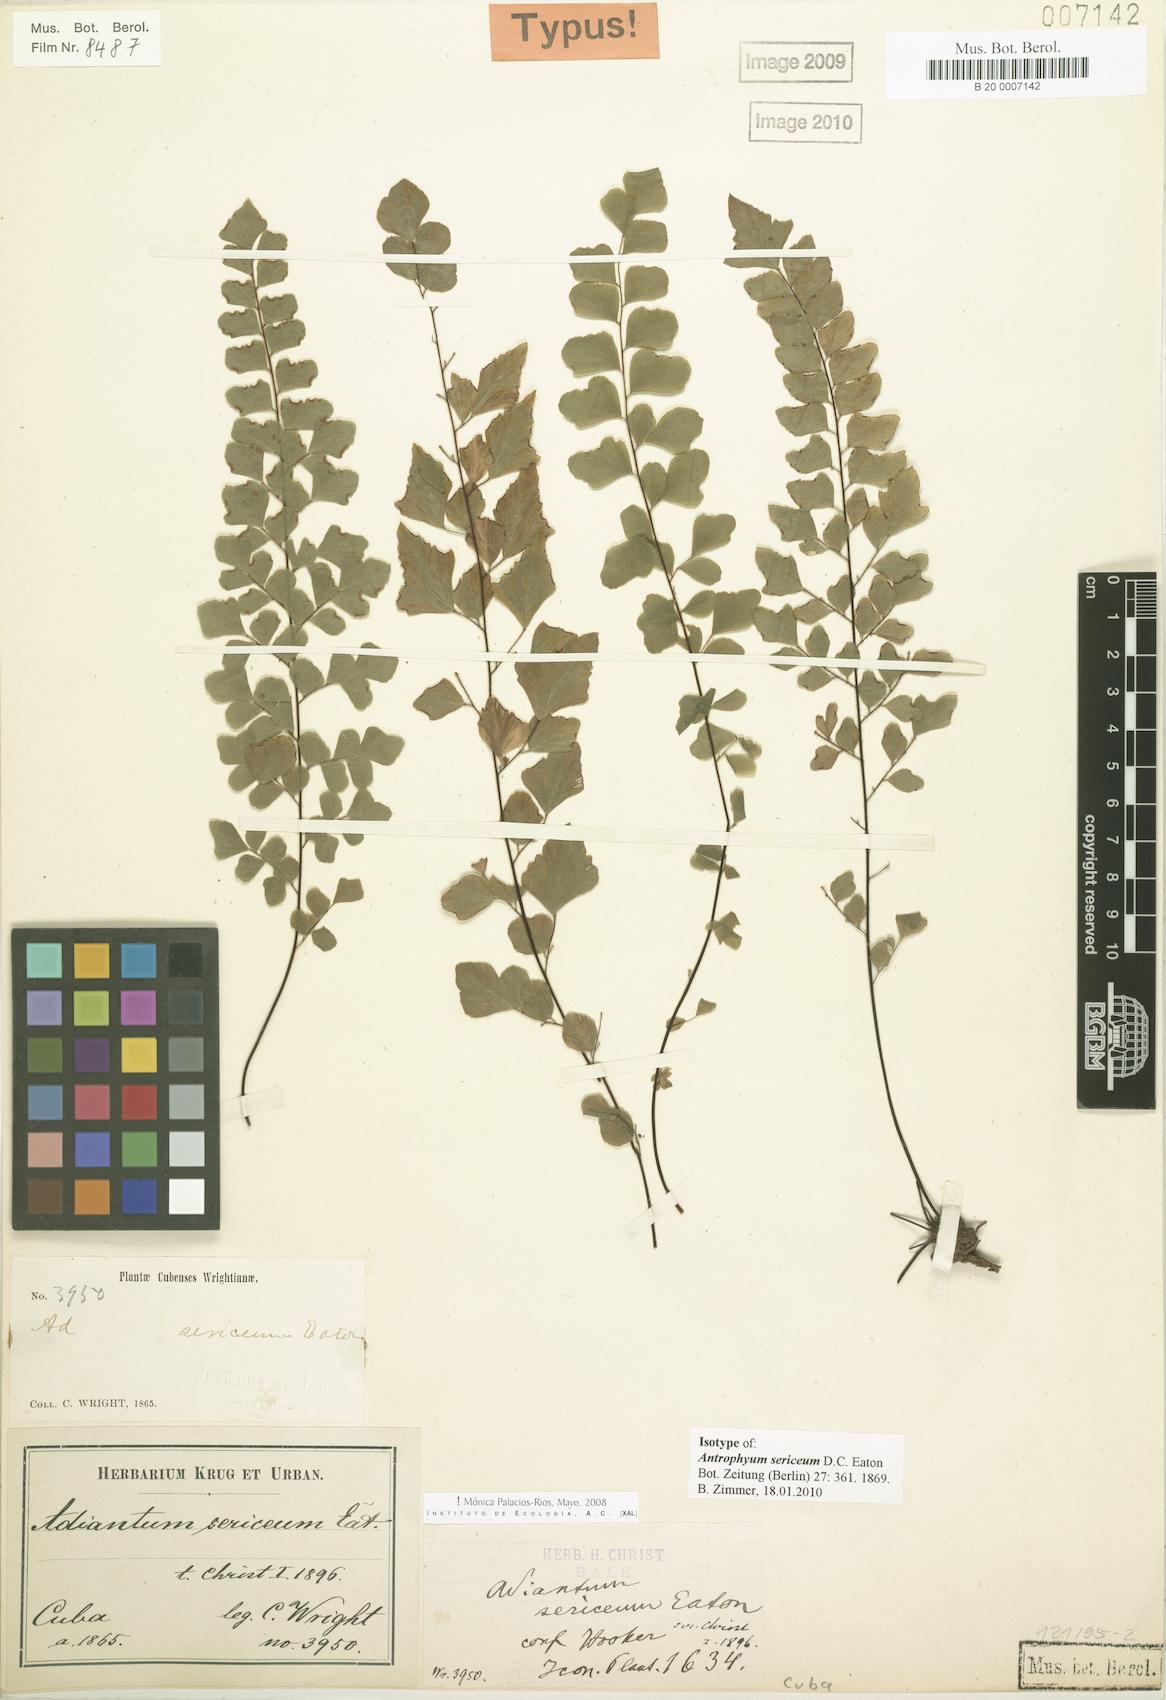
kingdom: Plantae
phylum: Tracheophyta
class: Polypodiopsida
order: Polypodiales
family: Pteridaceae
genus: Adiantum
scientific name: Adiantum sericeum
